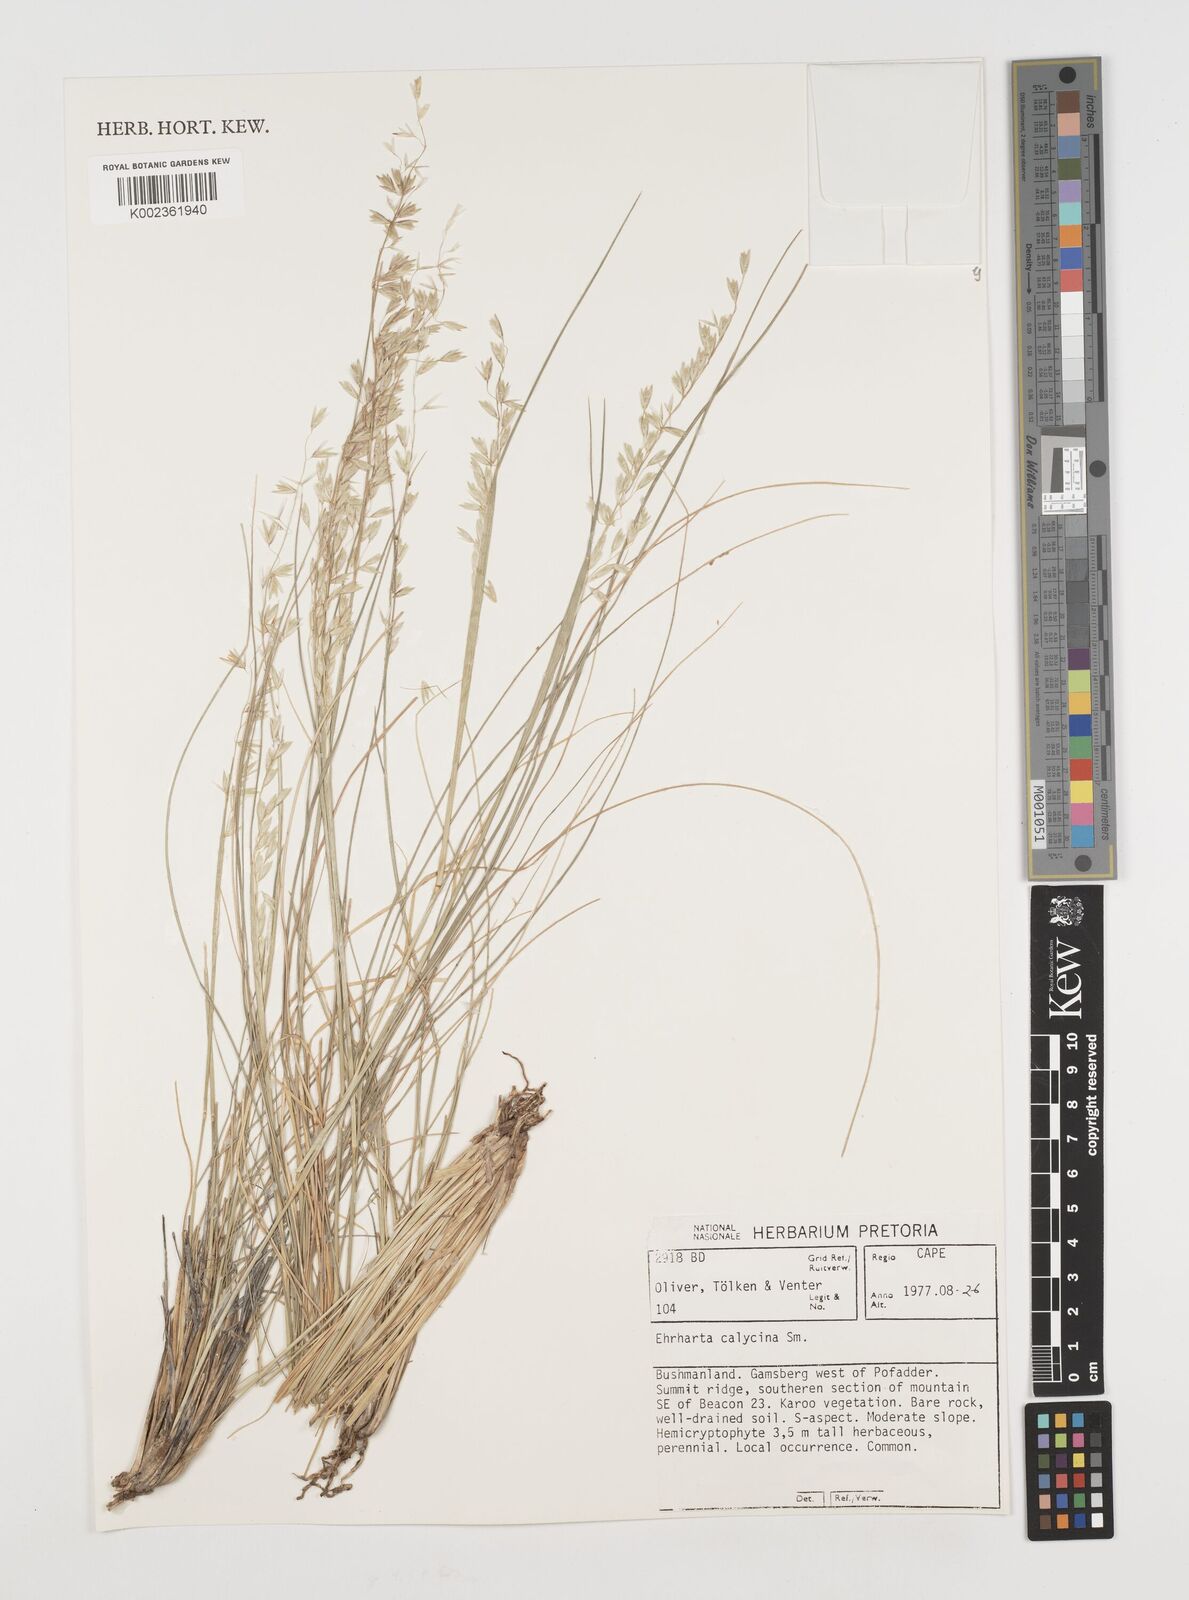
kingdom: Plantae
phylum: Tracheophyta
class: Liliopsida
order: Poales
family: Poaceae
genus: Ehrharta
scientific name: Ehrharta calycina
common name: Perennial veldtgrass
